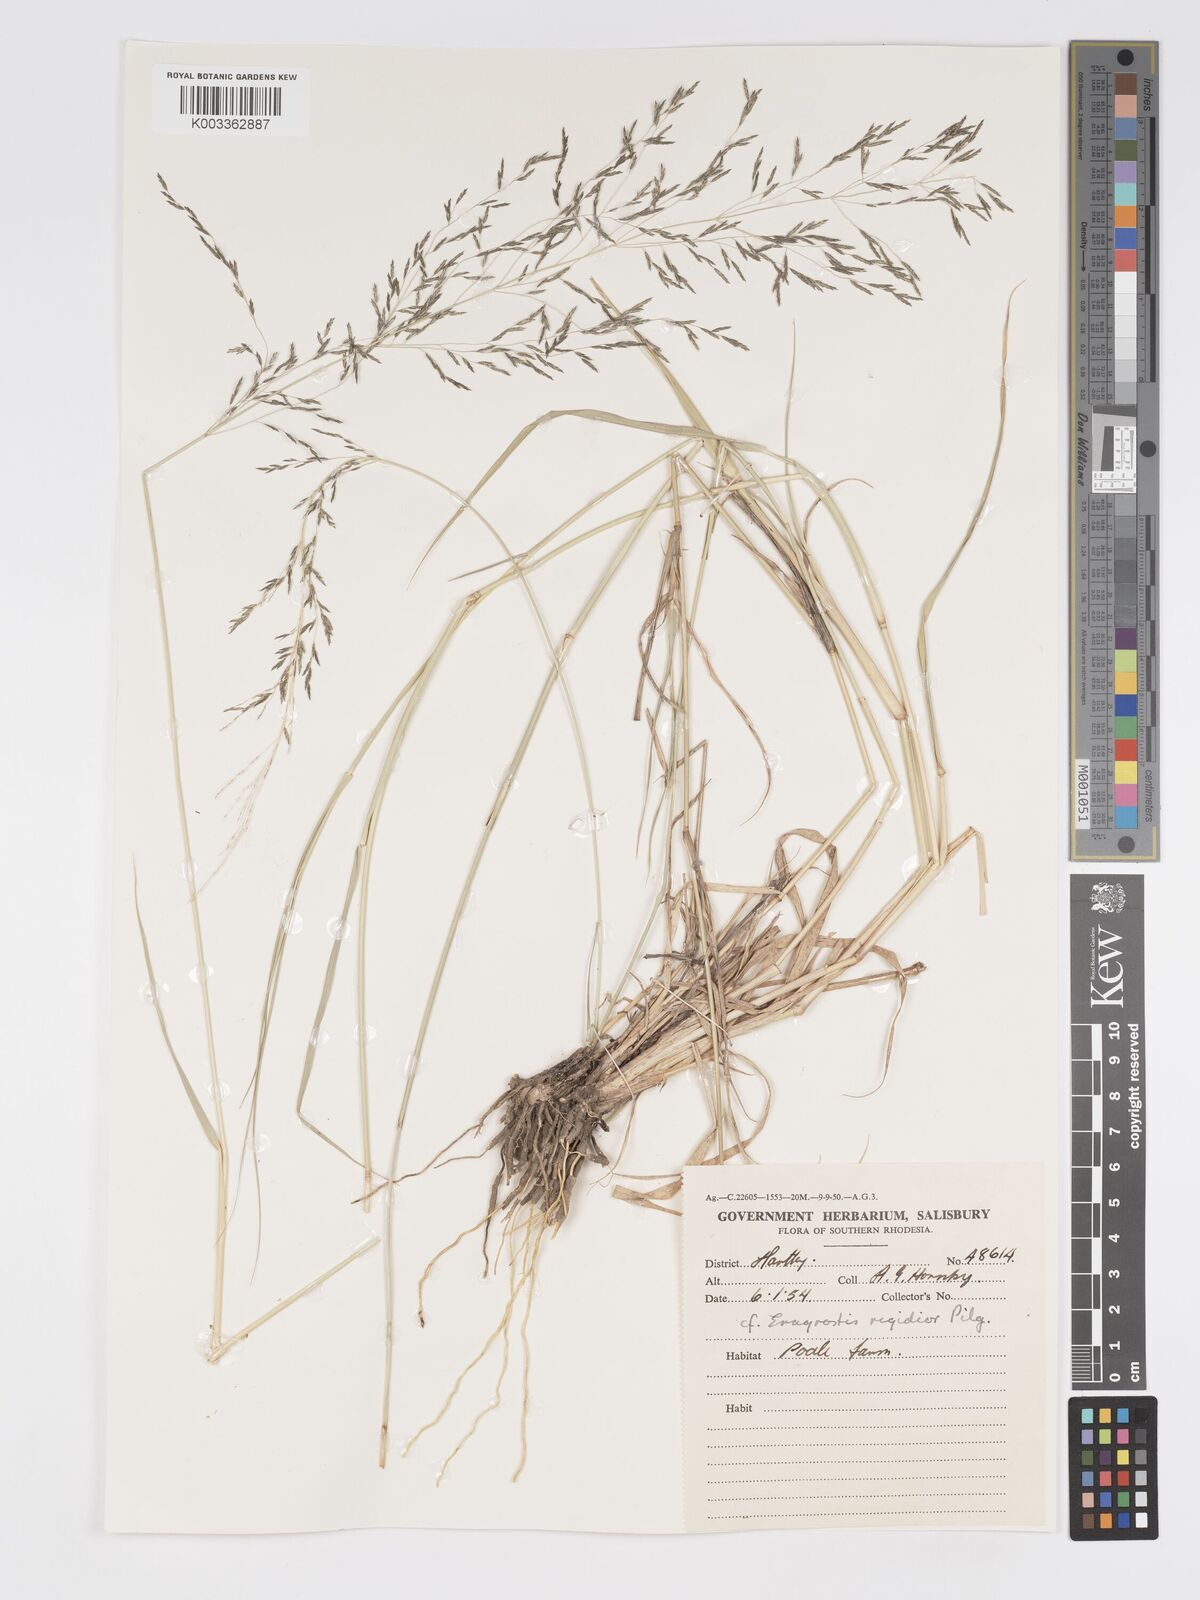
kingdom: Plantae
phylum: Tracheophyta
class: Liliopsida
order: Poales
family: Poaceae
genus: Eragrostis
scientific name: Eragrostis cylindriflora
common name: Cylinderflower lovegrass
